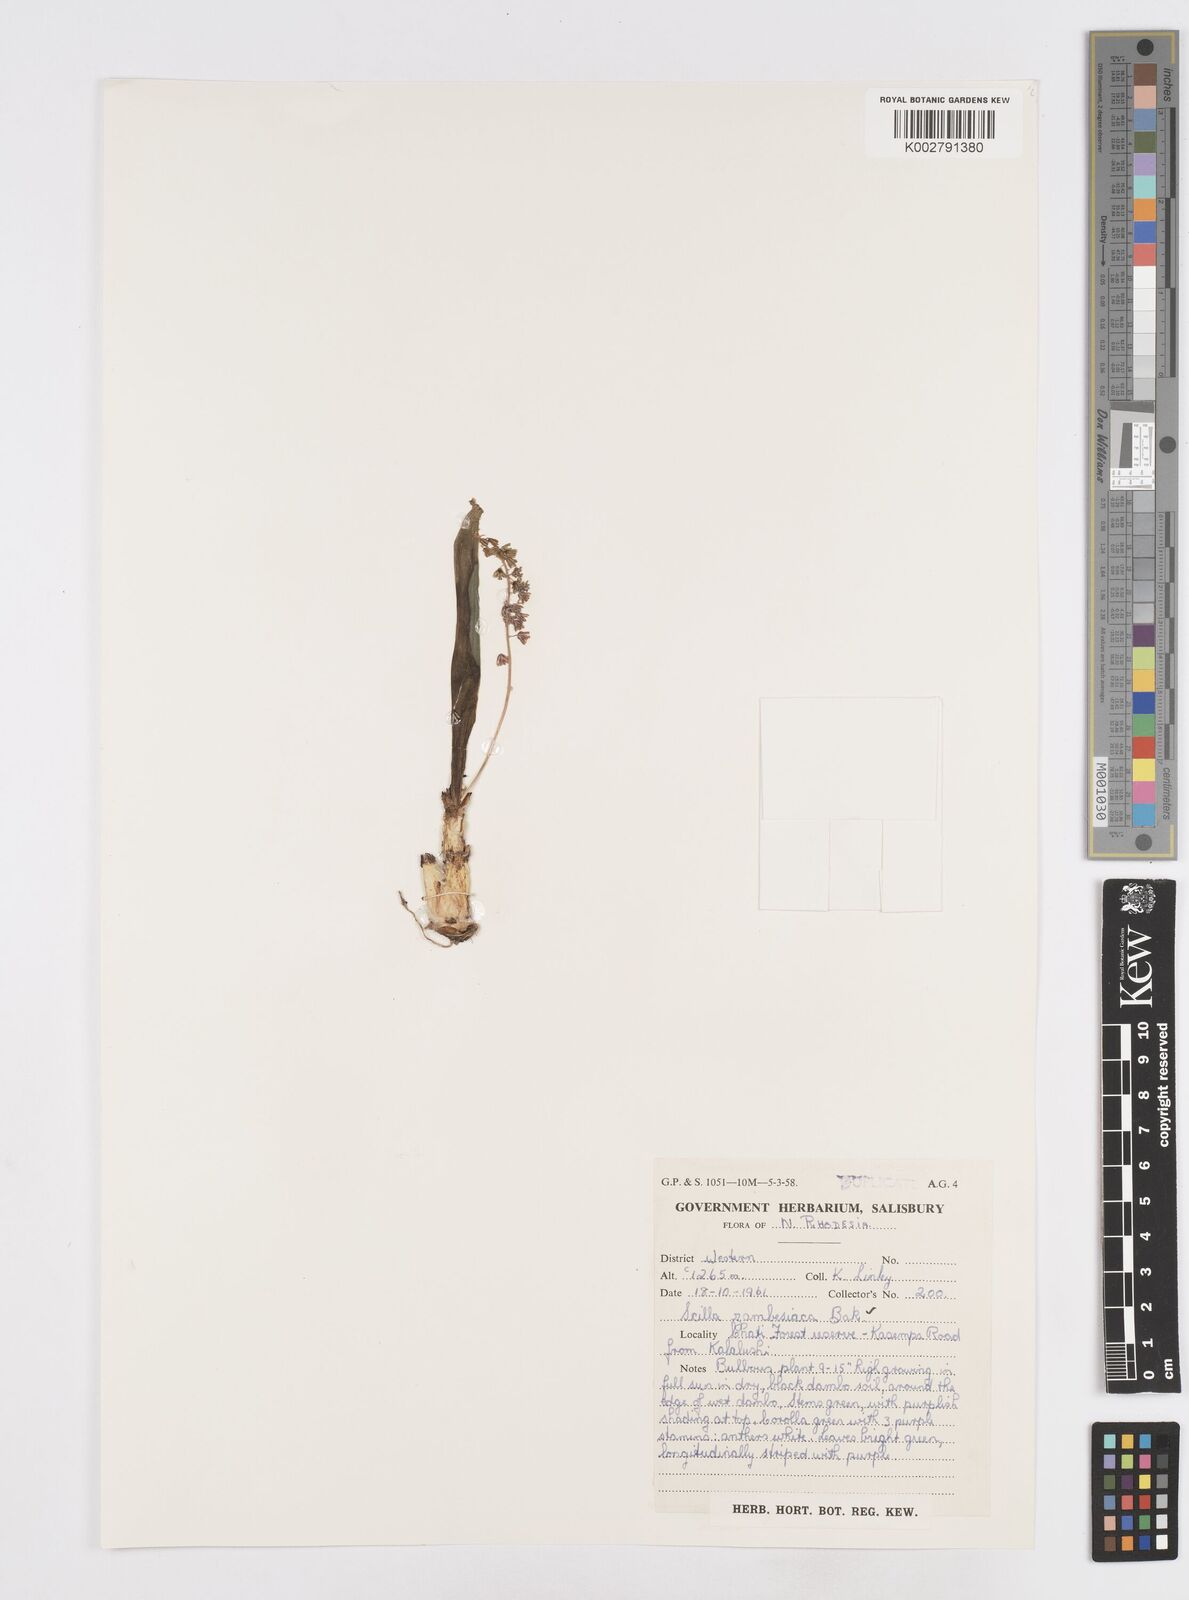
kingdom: Plantae
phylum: Tracheophyta
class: Liliopsida
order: Asparagales
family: Asparagaceae
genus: Ledebouria
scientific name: Ledebouria zambesiaca
